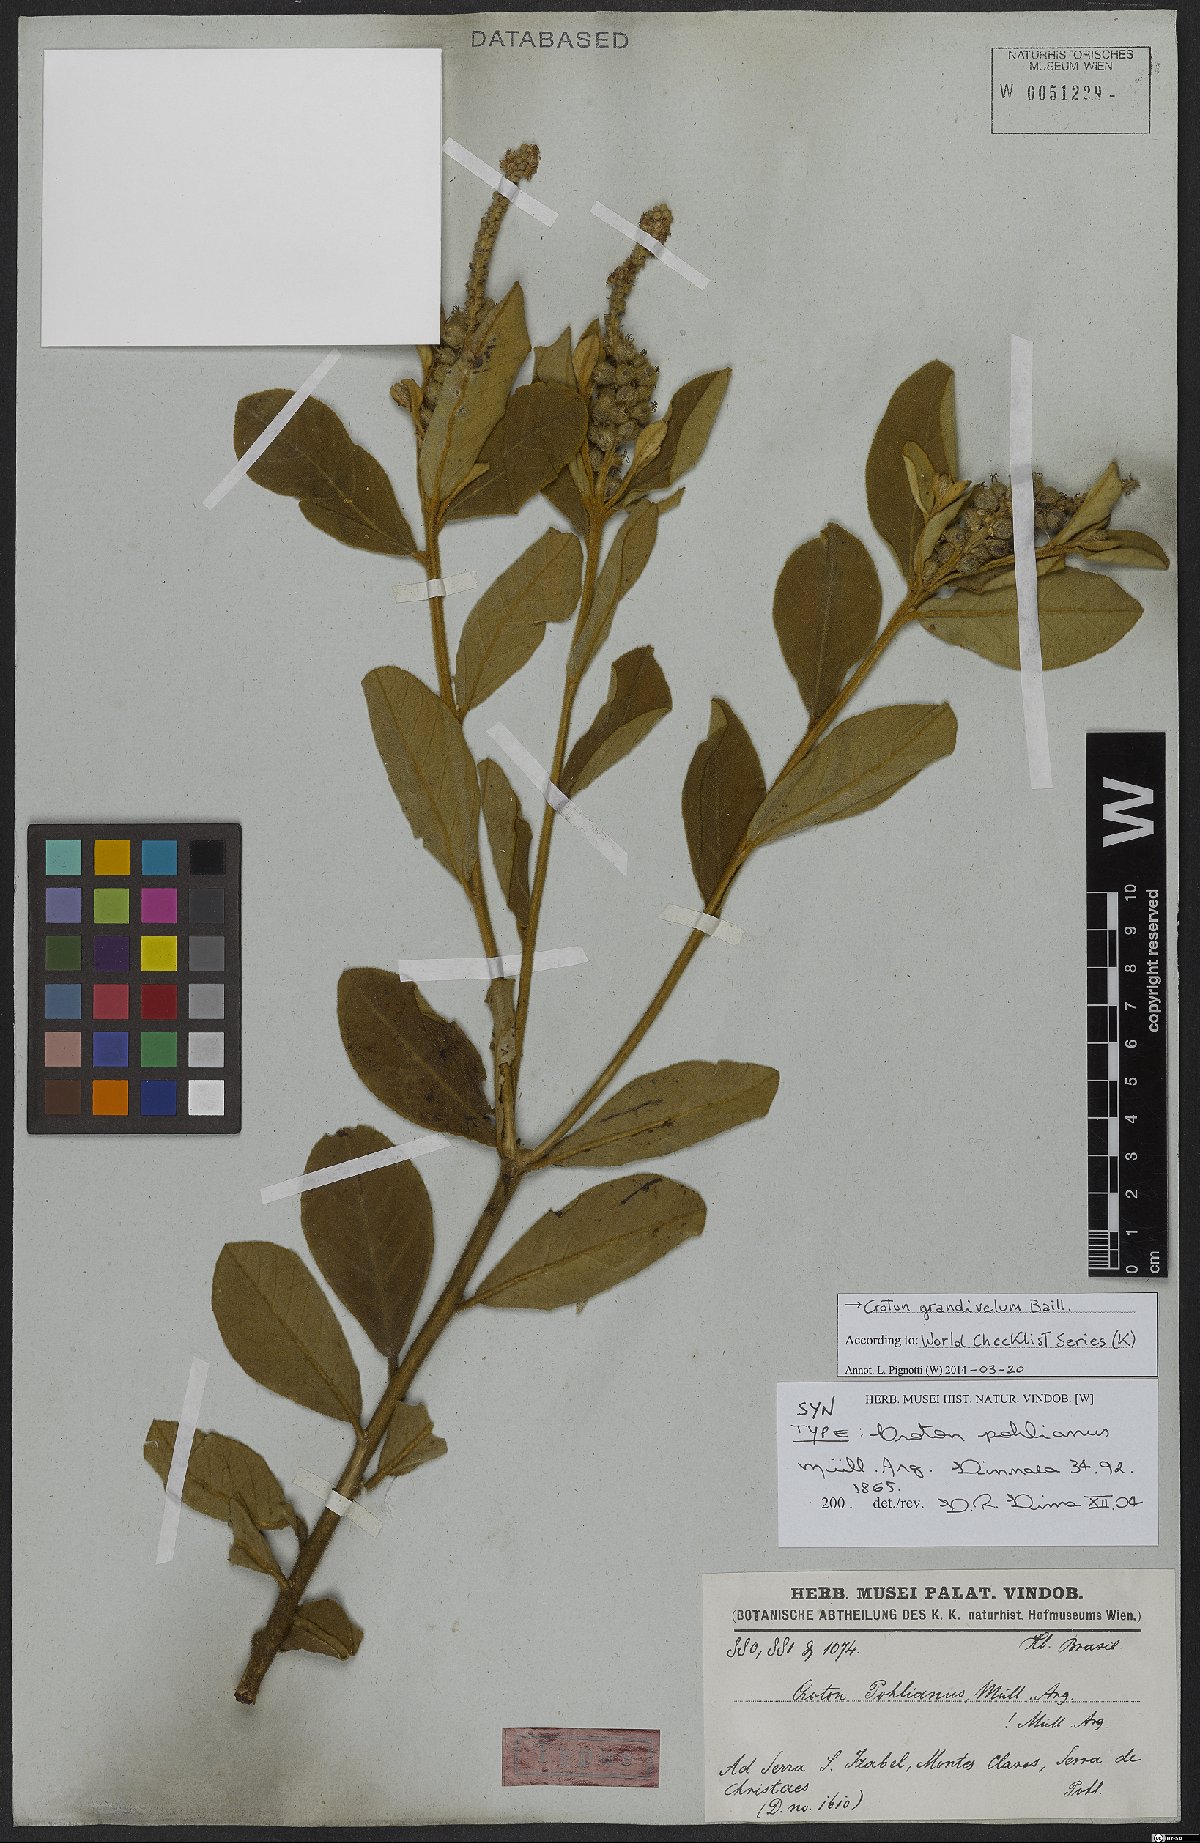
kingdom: Plantae
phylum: Tracheophyta
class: Magnoliopsida
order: Malpighiales
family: Euphorbiaceae
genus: Croton
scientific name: Croton grandivelum
